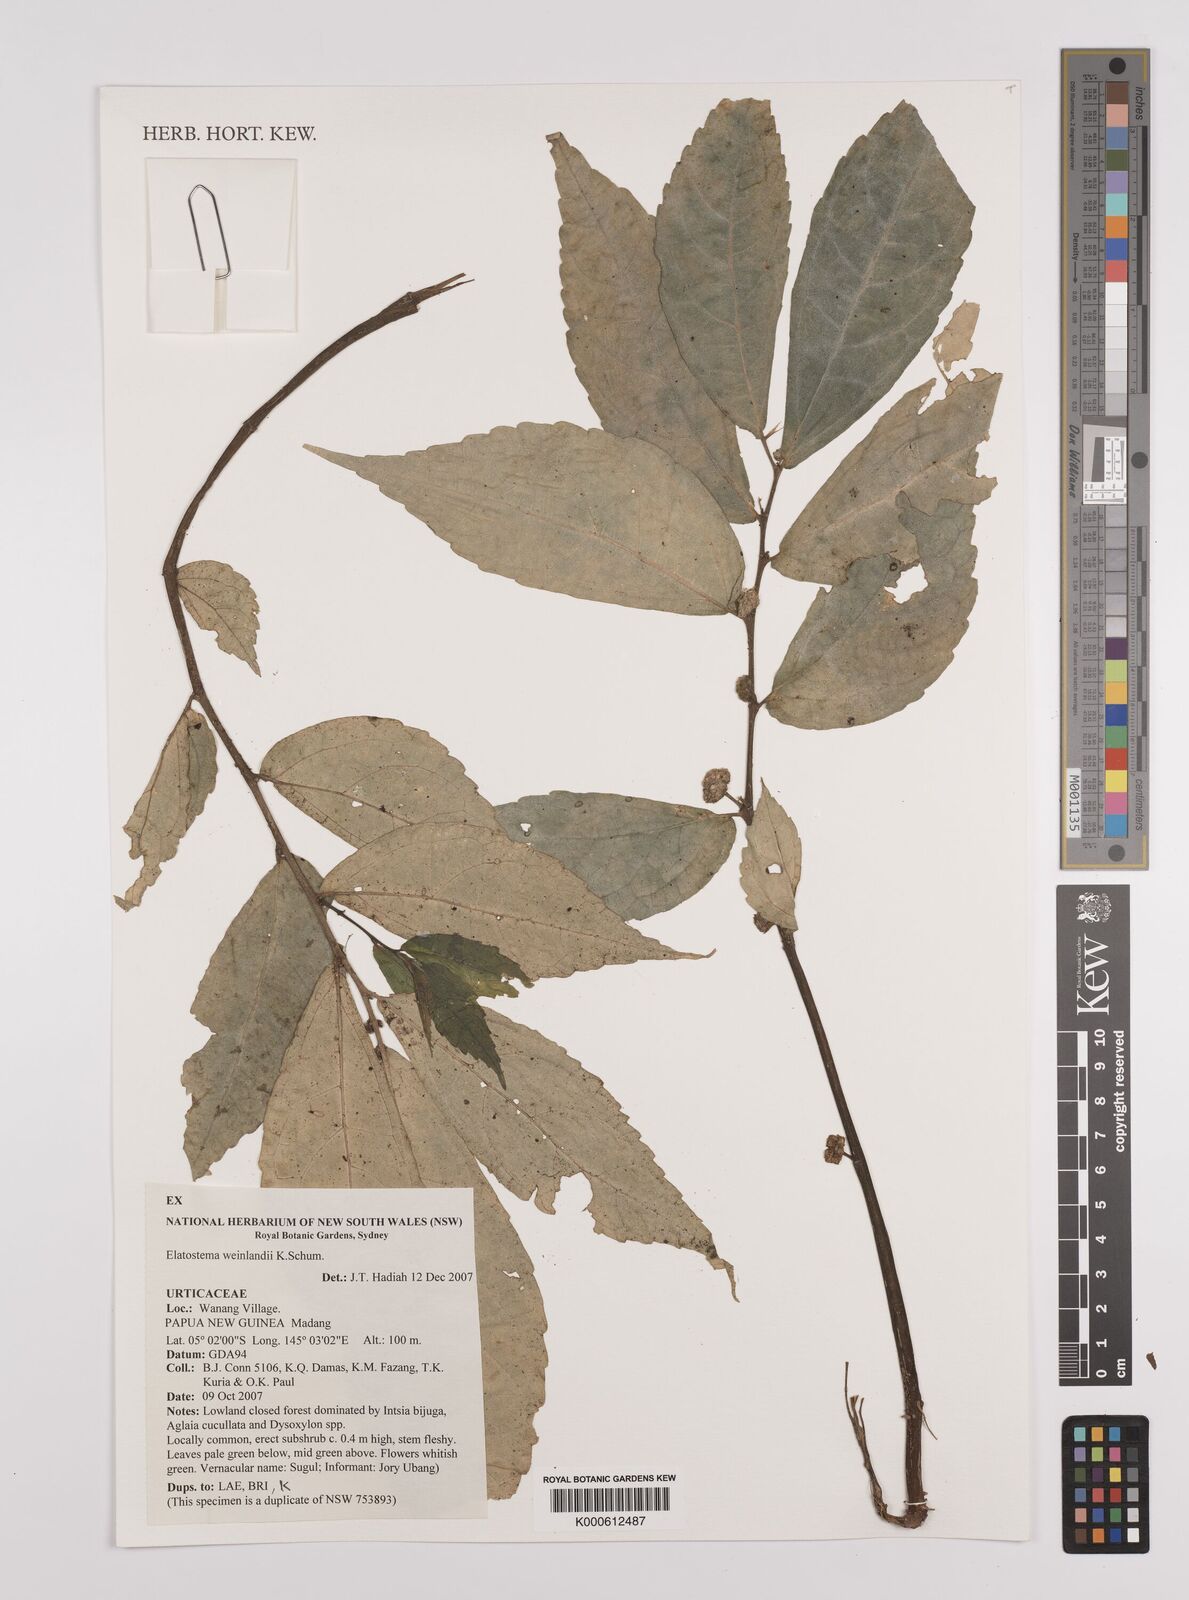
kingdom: Plantae
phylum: Tracheophyta
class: Magnoliopsida
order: Rosales
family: Urticaceae
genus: Elatostema
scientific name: Elatostema weinlandii
